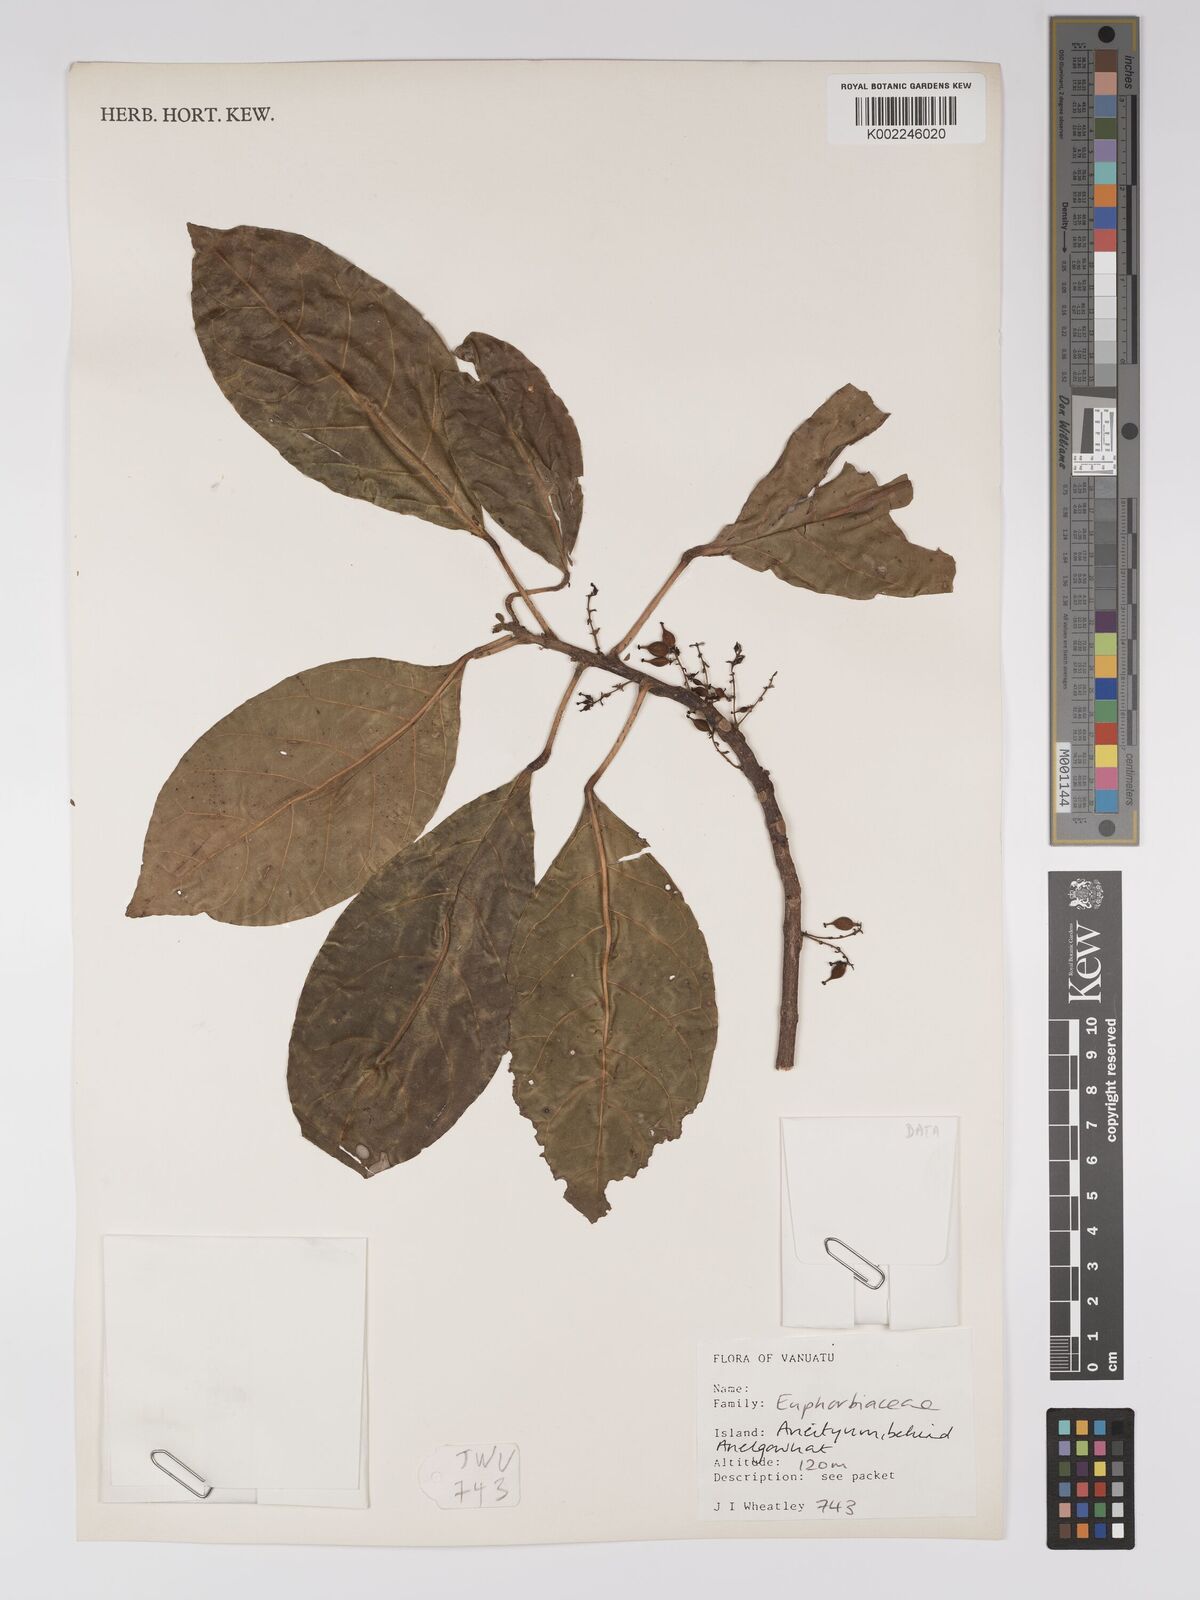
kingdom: Plantae
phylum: Tracheophyta
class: Magnoliopsida
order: Malpighiales
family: Euphorbiaceae
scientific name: Euphorbiaceae
